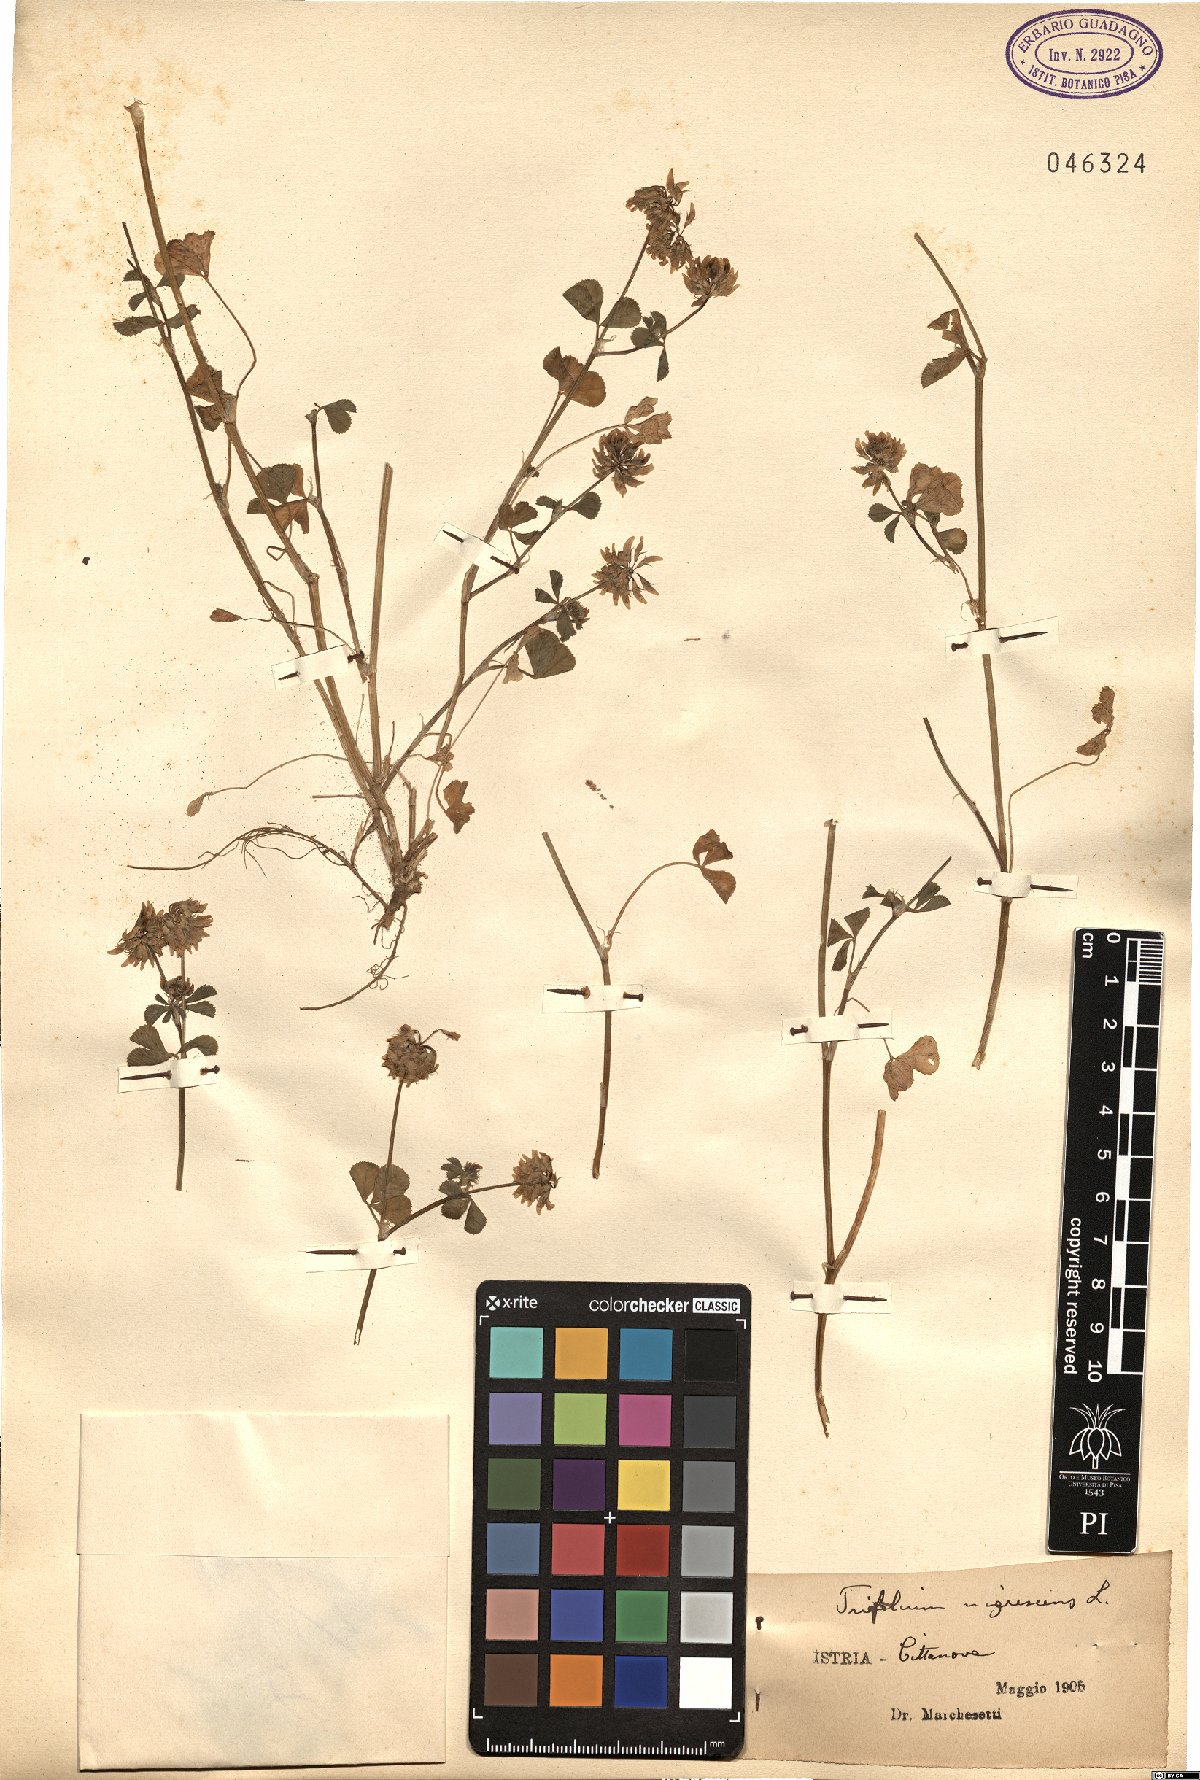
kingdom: Plantae
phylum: Tracheophyta
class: Magnoliopsida
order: Fabales
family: Fabaceae
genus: Trifolium
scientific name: Trifolium nigrescens
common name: Small white clover
